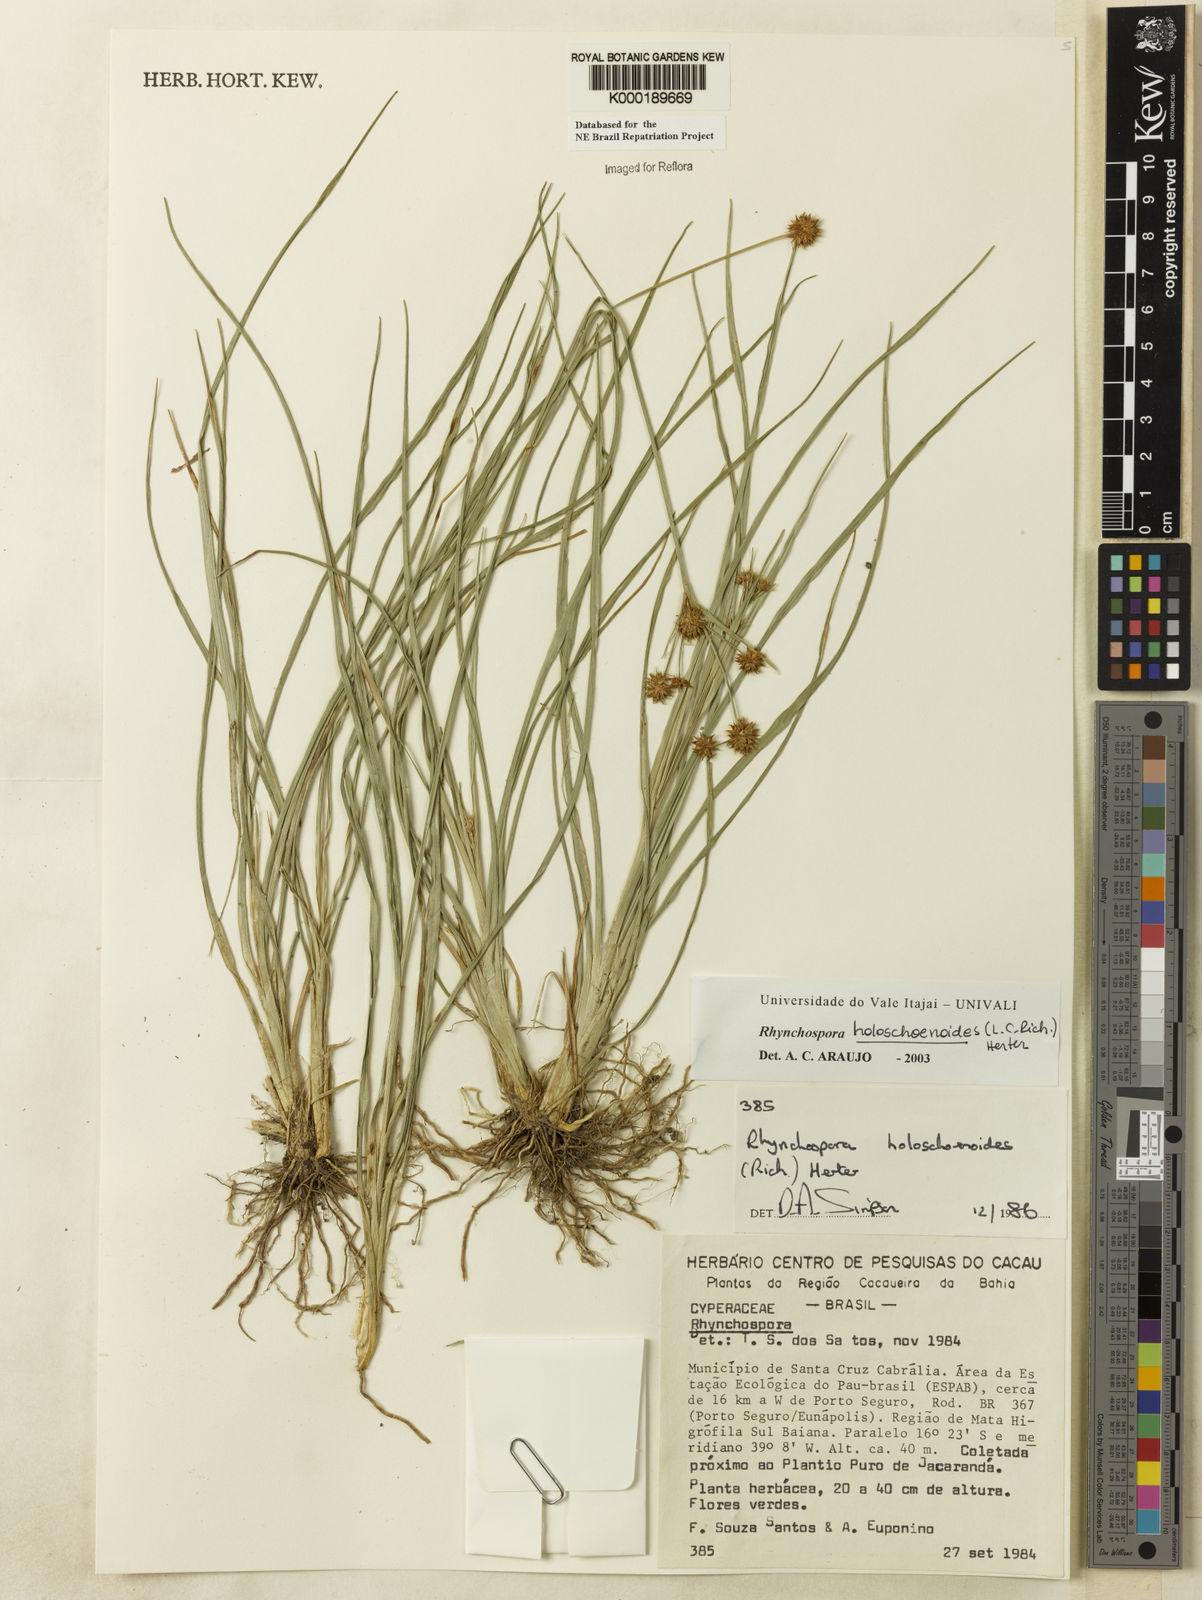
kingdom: Plantae
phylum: Tracheophyta
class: Liliopsida
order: Poales
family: Cyperaceae
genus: Rhynchospora
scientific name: Rhynchospora holoschoenoides
